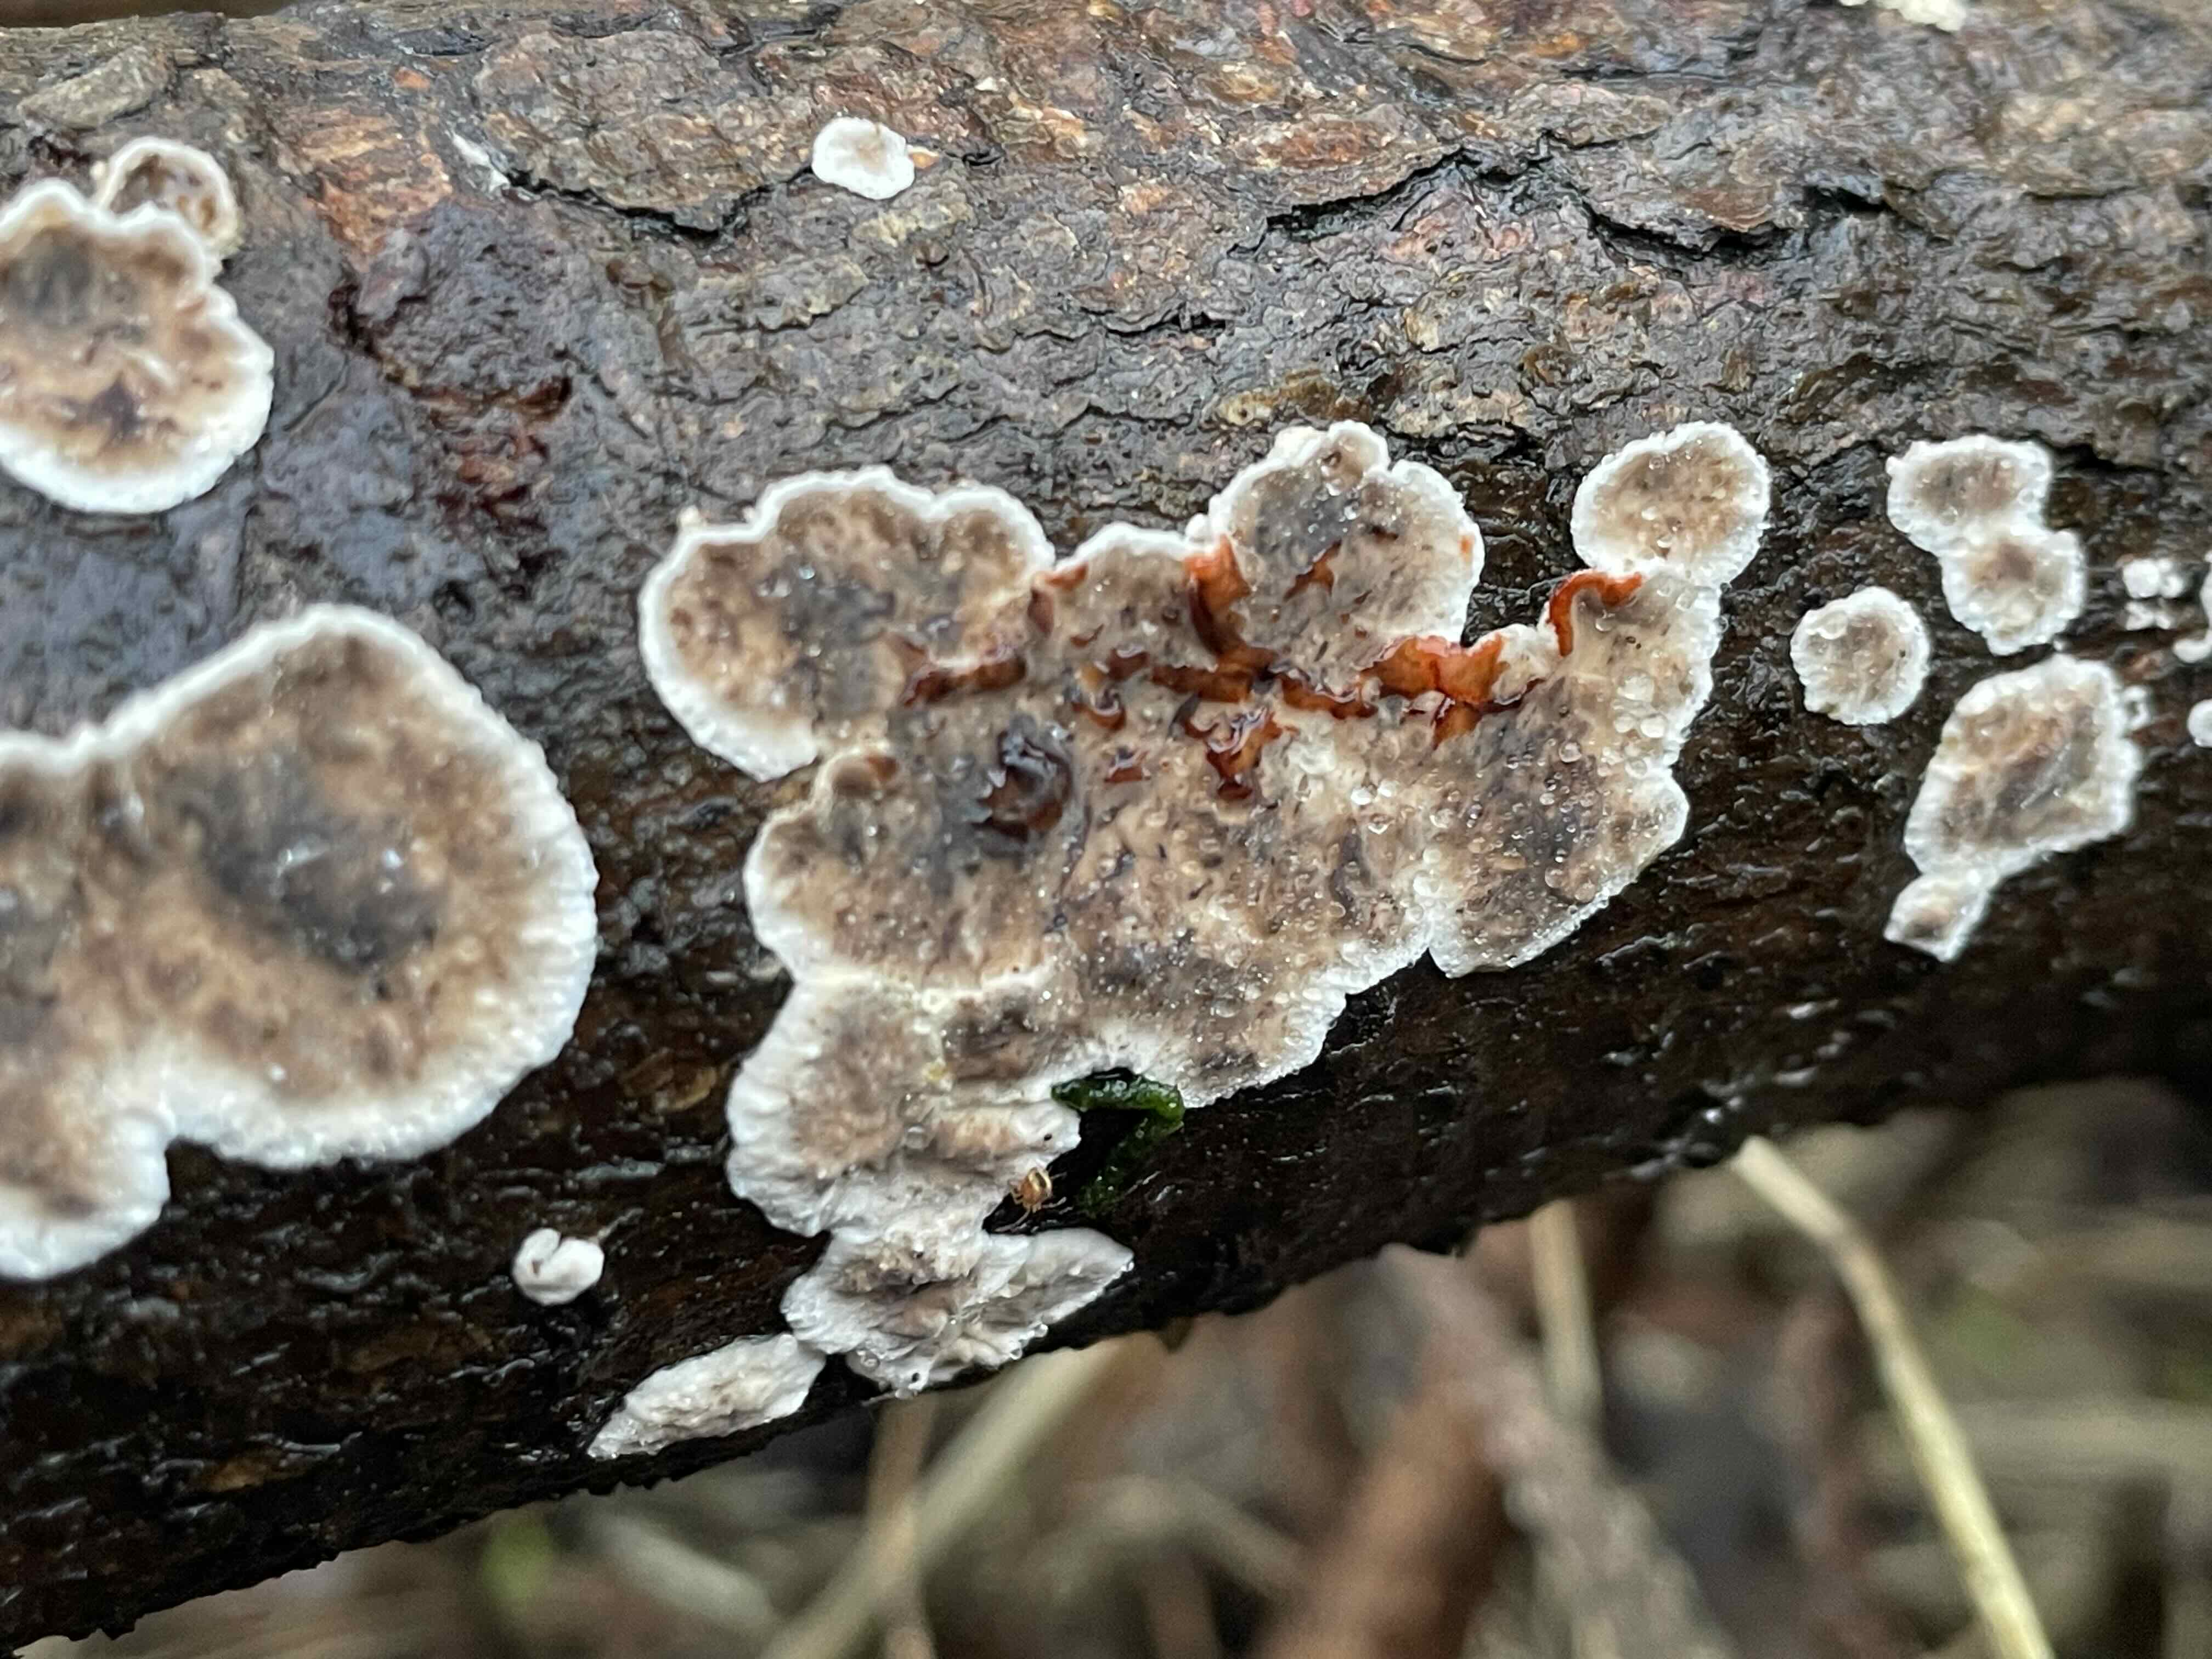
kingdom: Fungi
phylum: Basidiomycota
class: Agaricomycetes
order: Russulales
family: Stereaceae
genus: Stereum
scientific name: Stereum sanguinolentum
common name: blødende lædersvamp
